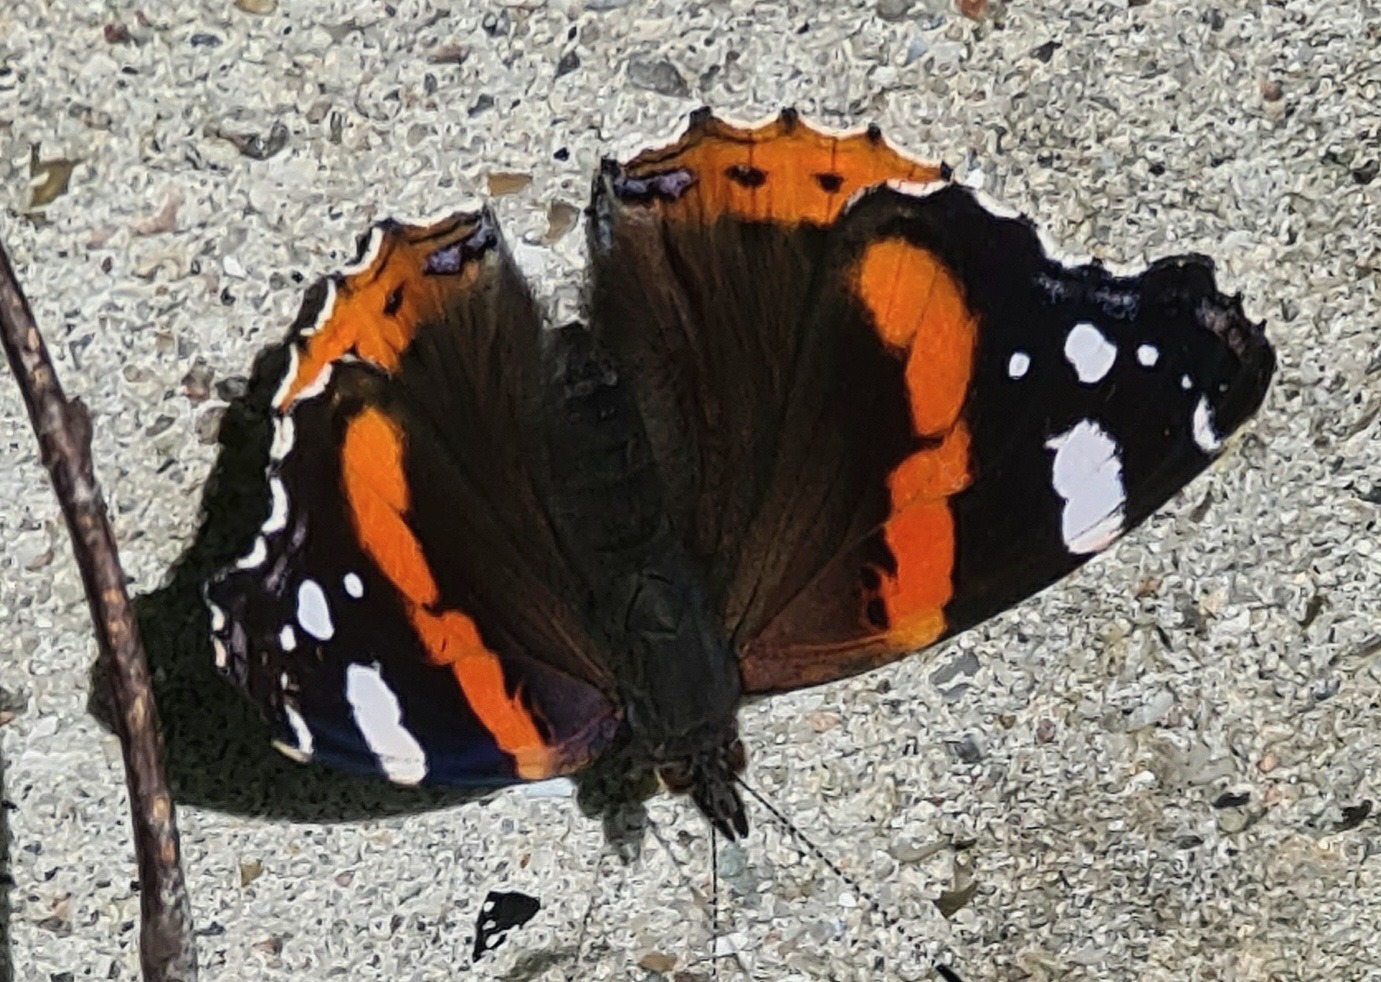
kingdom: Animalia
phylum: Arthropoda
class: Insecta
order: Lepidoptera
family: Nymphalidae
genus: Vanessa
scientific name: Vanessa atalanta
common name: Admiral
